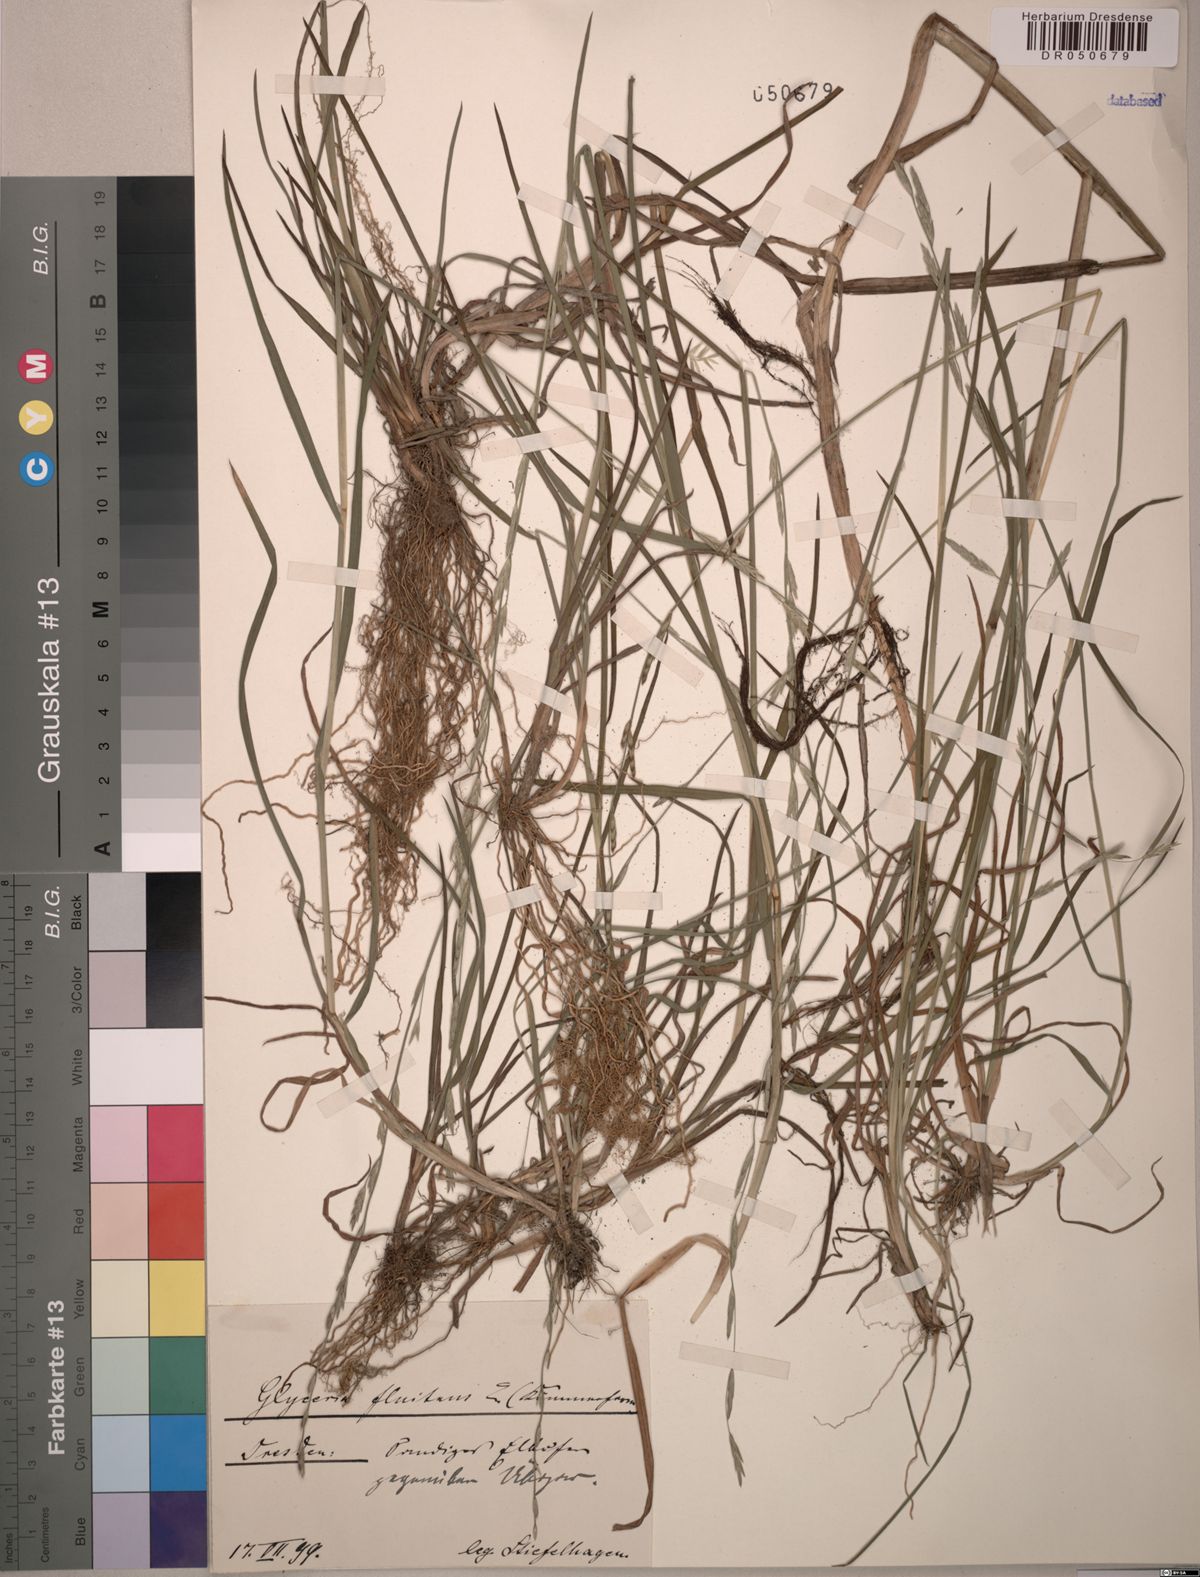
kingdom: Plantae
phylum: Tracheophyta
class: Liliopsida
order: Poales
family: Poaceae
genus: Glyceria
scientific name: Glyceria fluitans
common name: Floating sweet-grass
